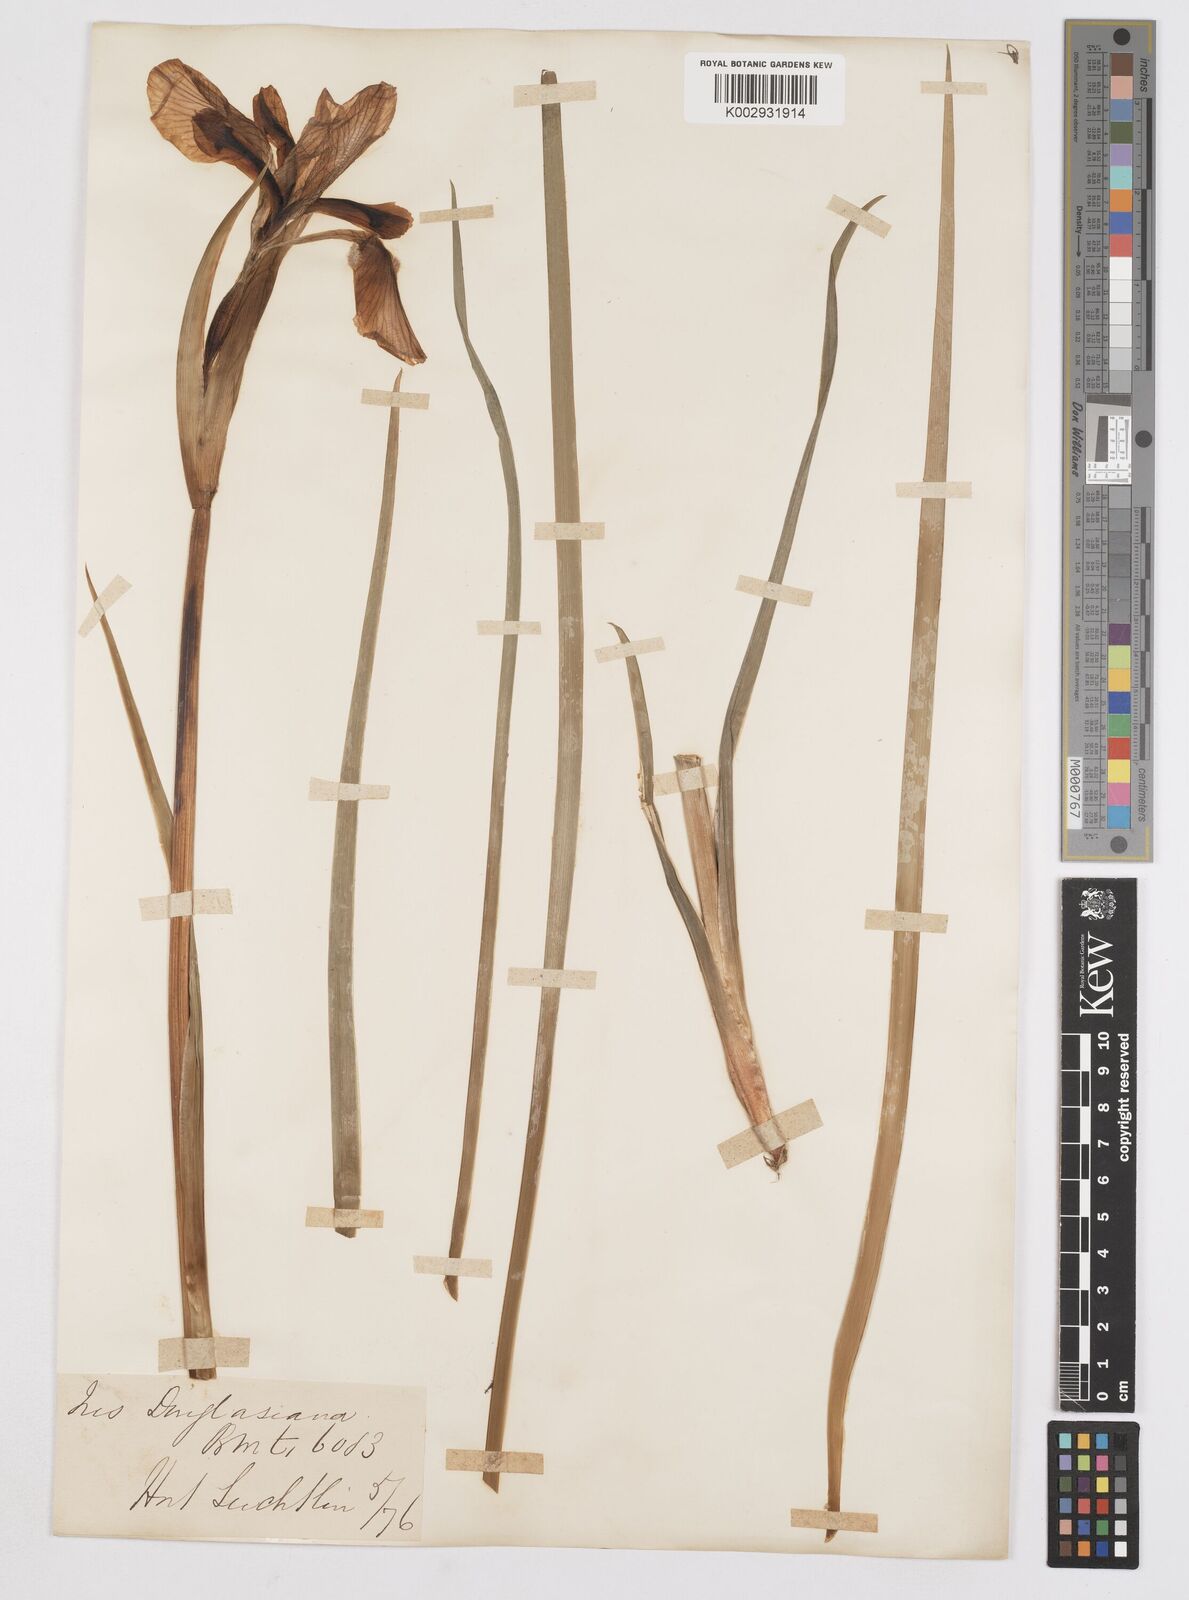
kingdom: Plantae
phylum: Tracheophyta
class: Liliopsida
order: Asparagales
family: Iridaceae
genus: Iris
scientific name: Iris douglasiana
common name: Marin iris
